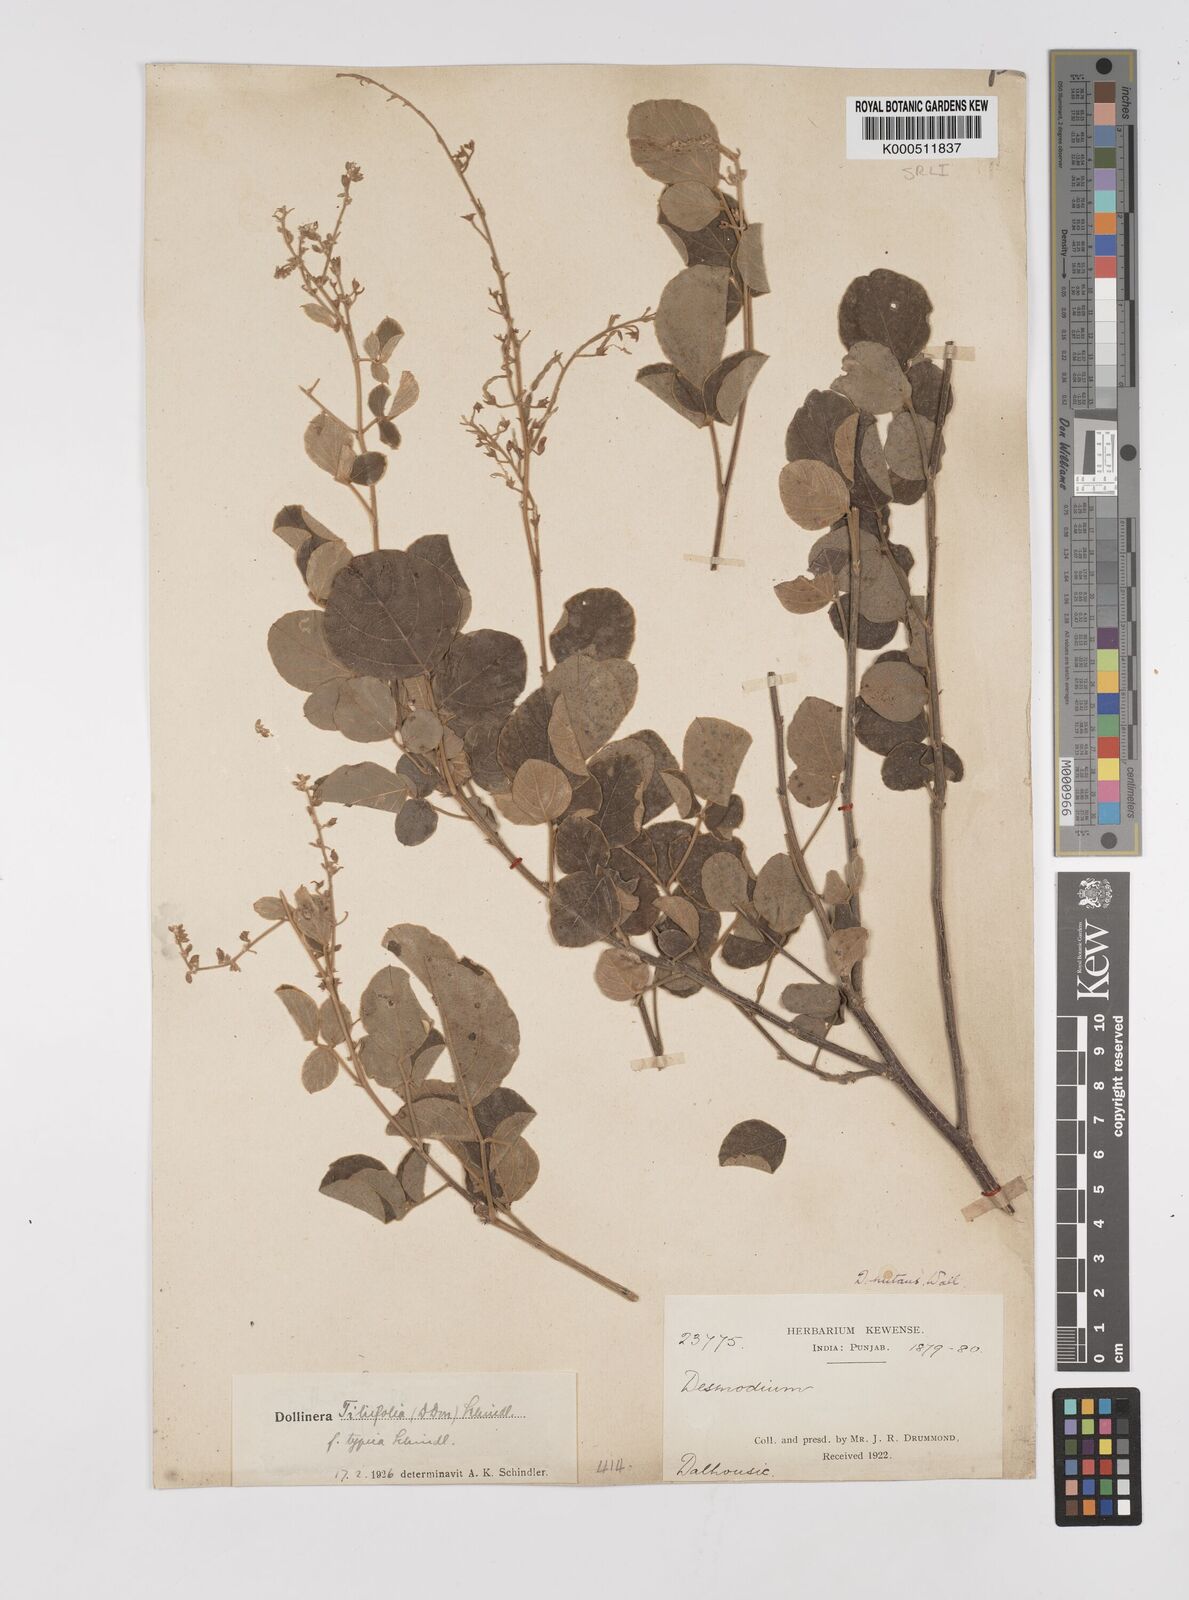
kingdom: Plantae
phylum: Tracheophyta
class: Magnoliopsida
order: Fabales
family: Fabaceae
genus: Sunhangia
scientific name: Sunhangia elegans
